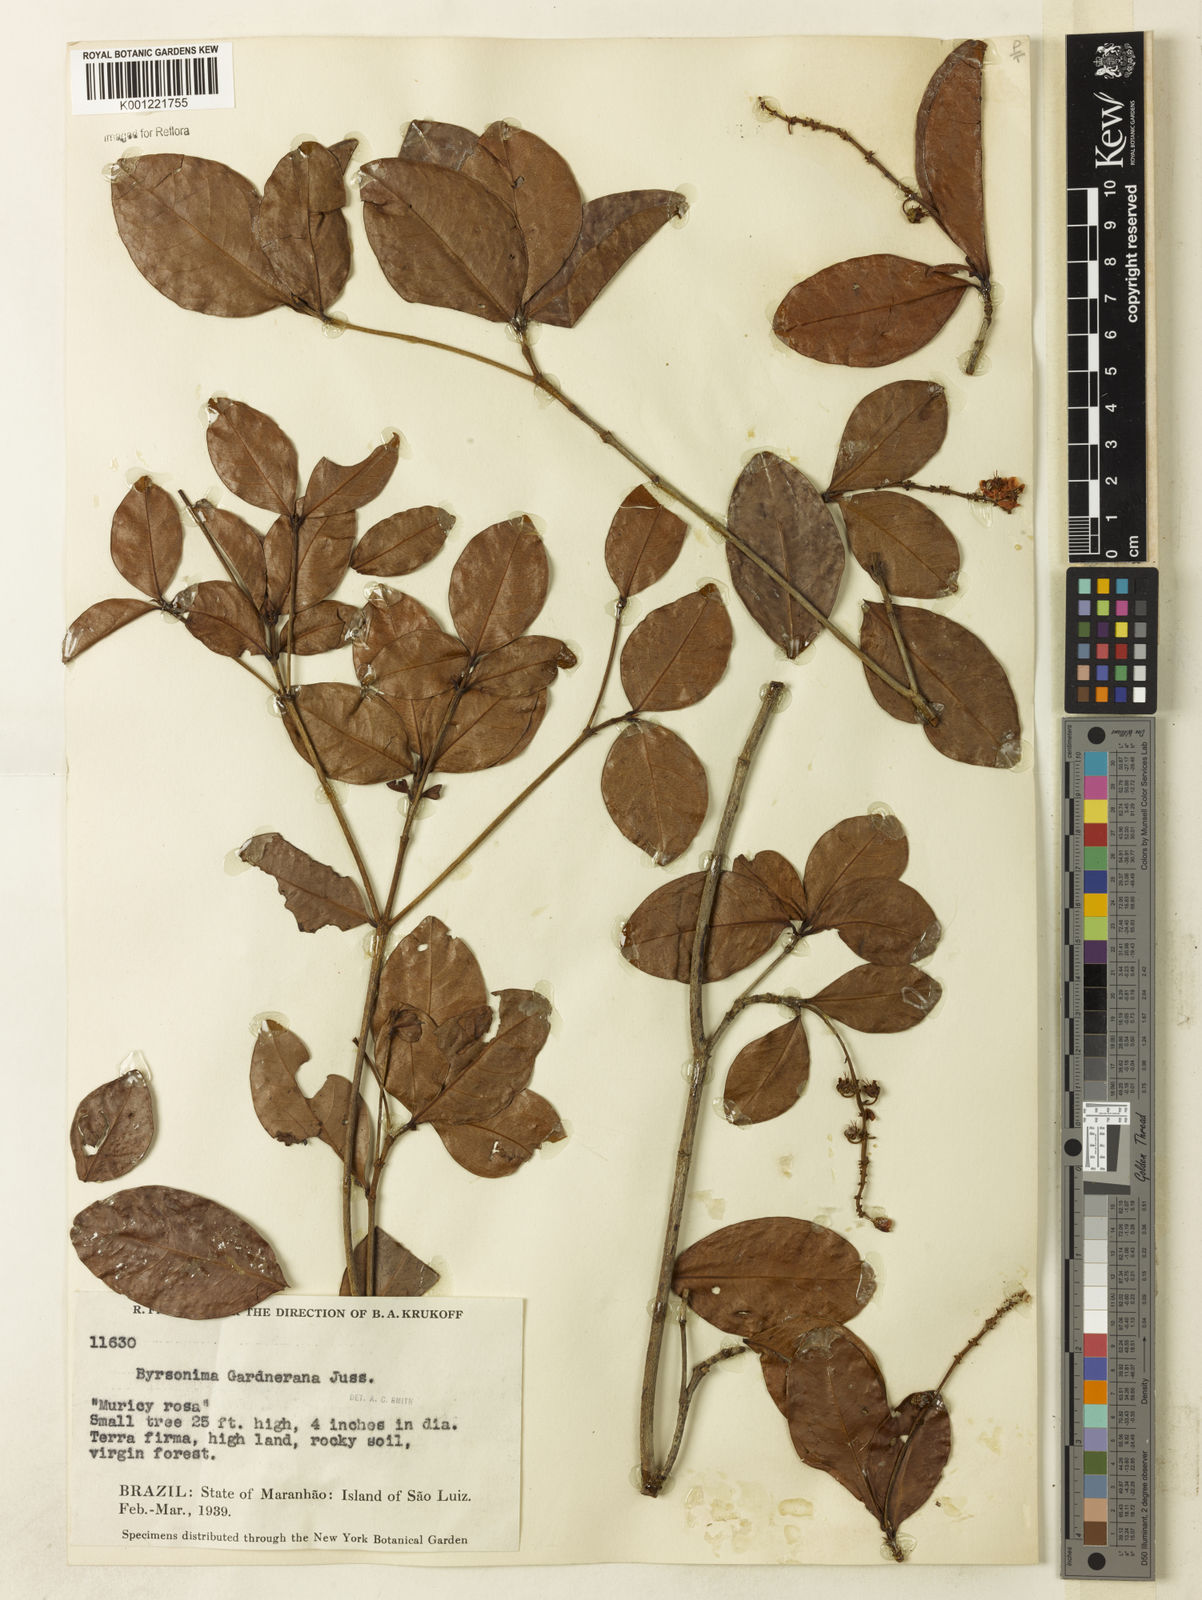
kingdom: Plantae
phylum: Tracheophyta
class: Magnoliopsida
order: Malpighiales
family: Malpighiaceae
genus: Byrsonima
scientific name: Byrsonima gardneriana
